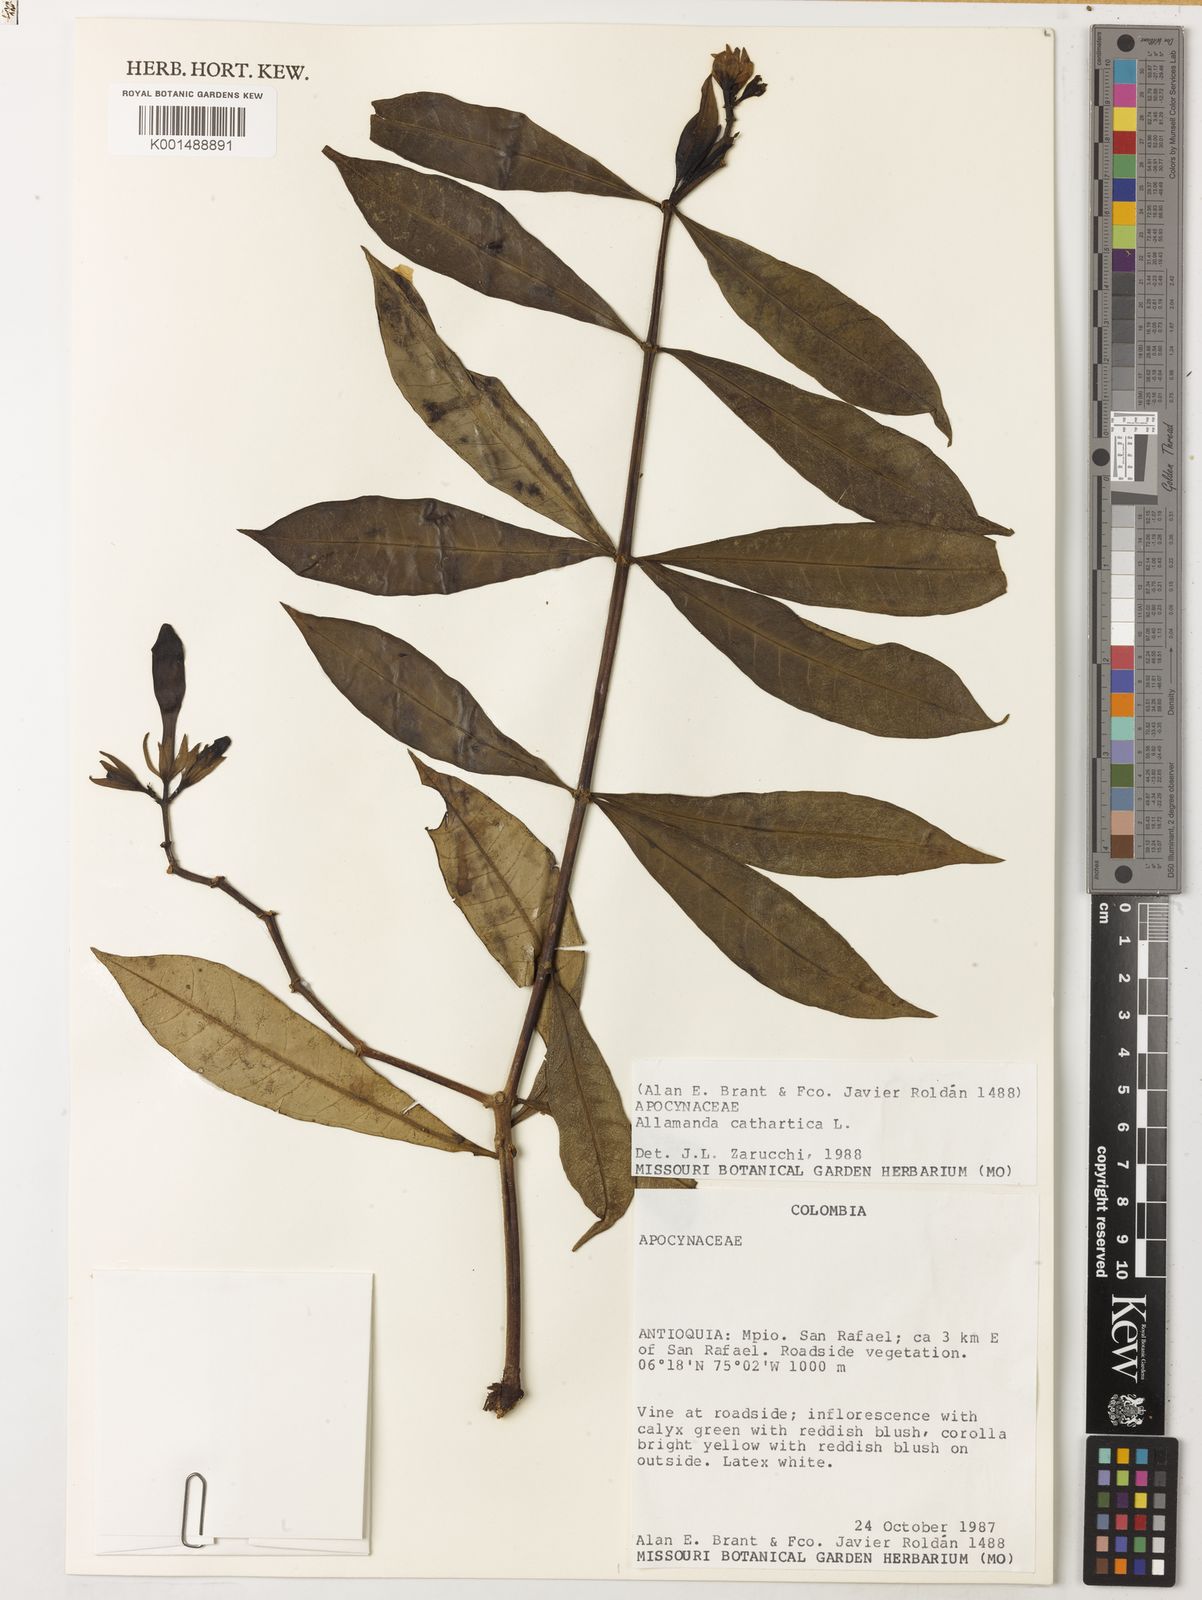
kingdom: Plantae
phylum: Tracheophyta
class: Magnoliopsida
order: Gentianales
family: Apocynaceae
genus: Allamanda
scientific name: Allamanda cathartica
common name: Golden trumpet
